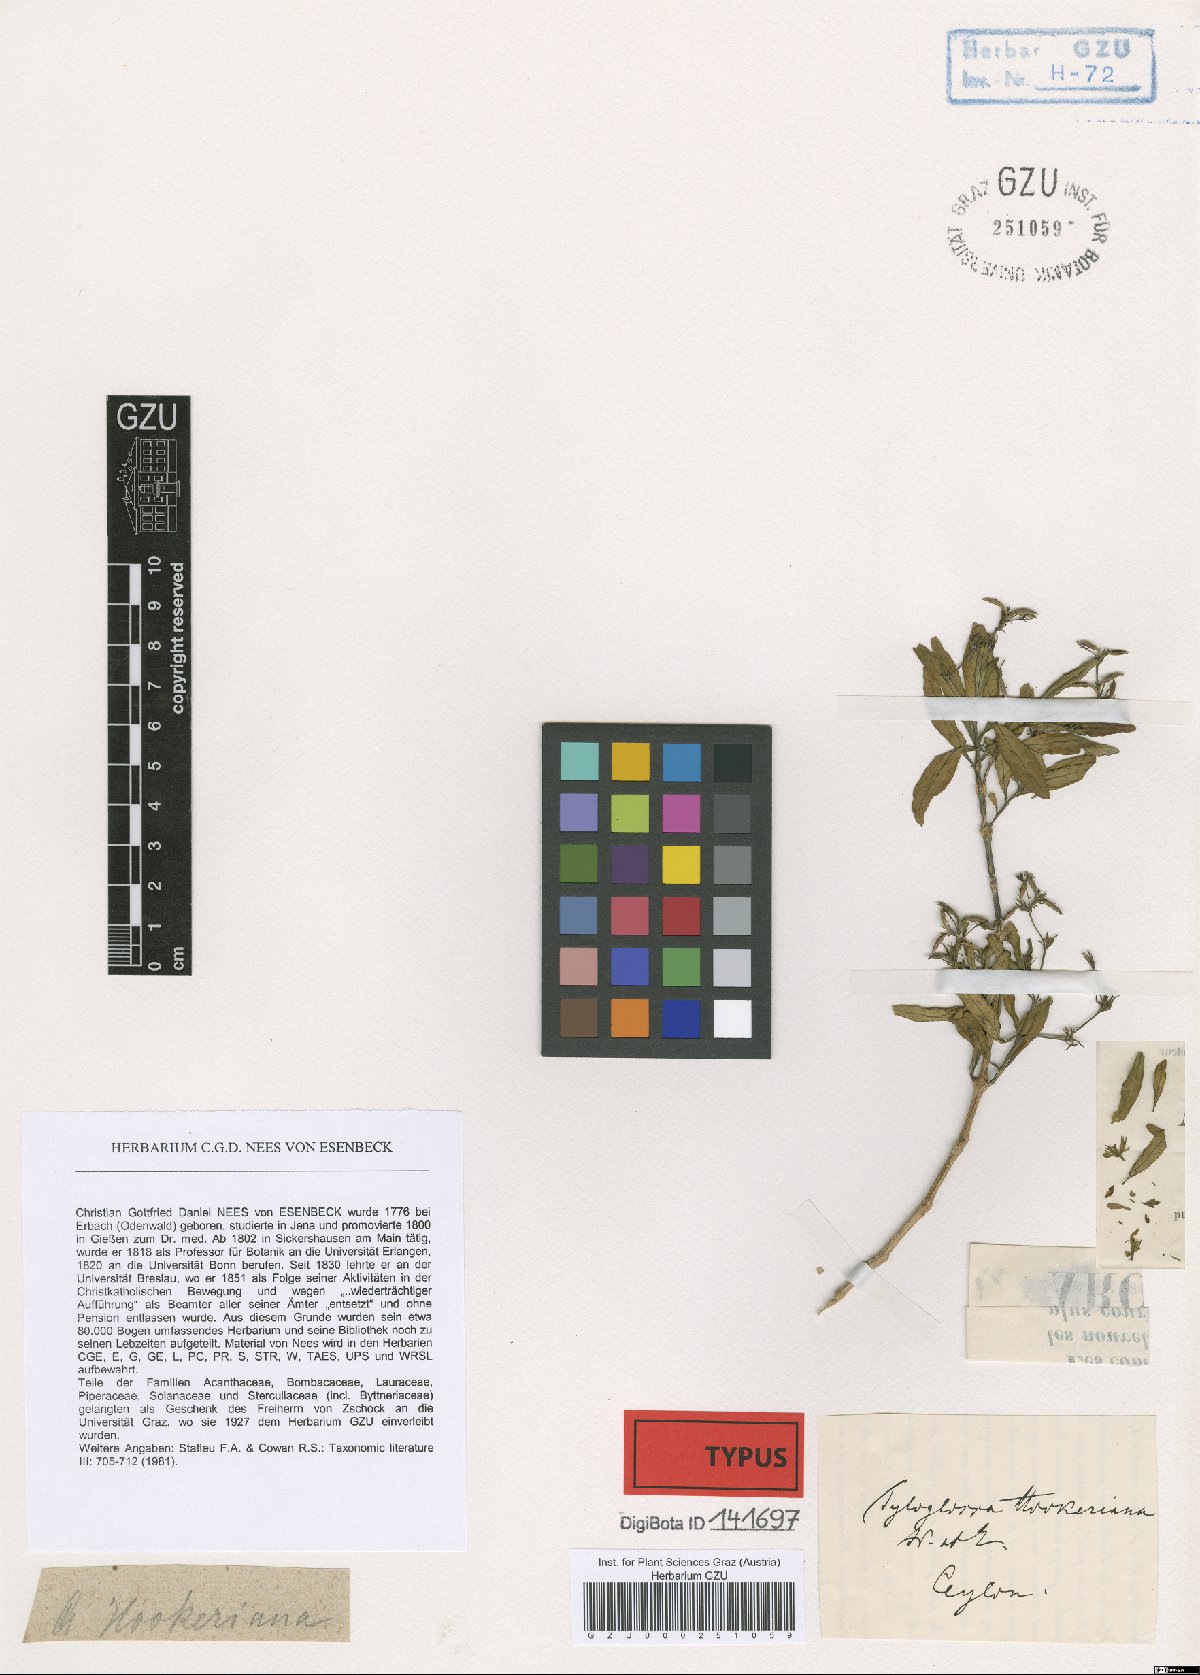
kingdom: Plantae
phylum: Tracheophyta
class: Magnoliopsida
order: Lamiales
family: Acanthaceae
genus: Leptostachya
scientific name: Leptostachya zeylanica
